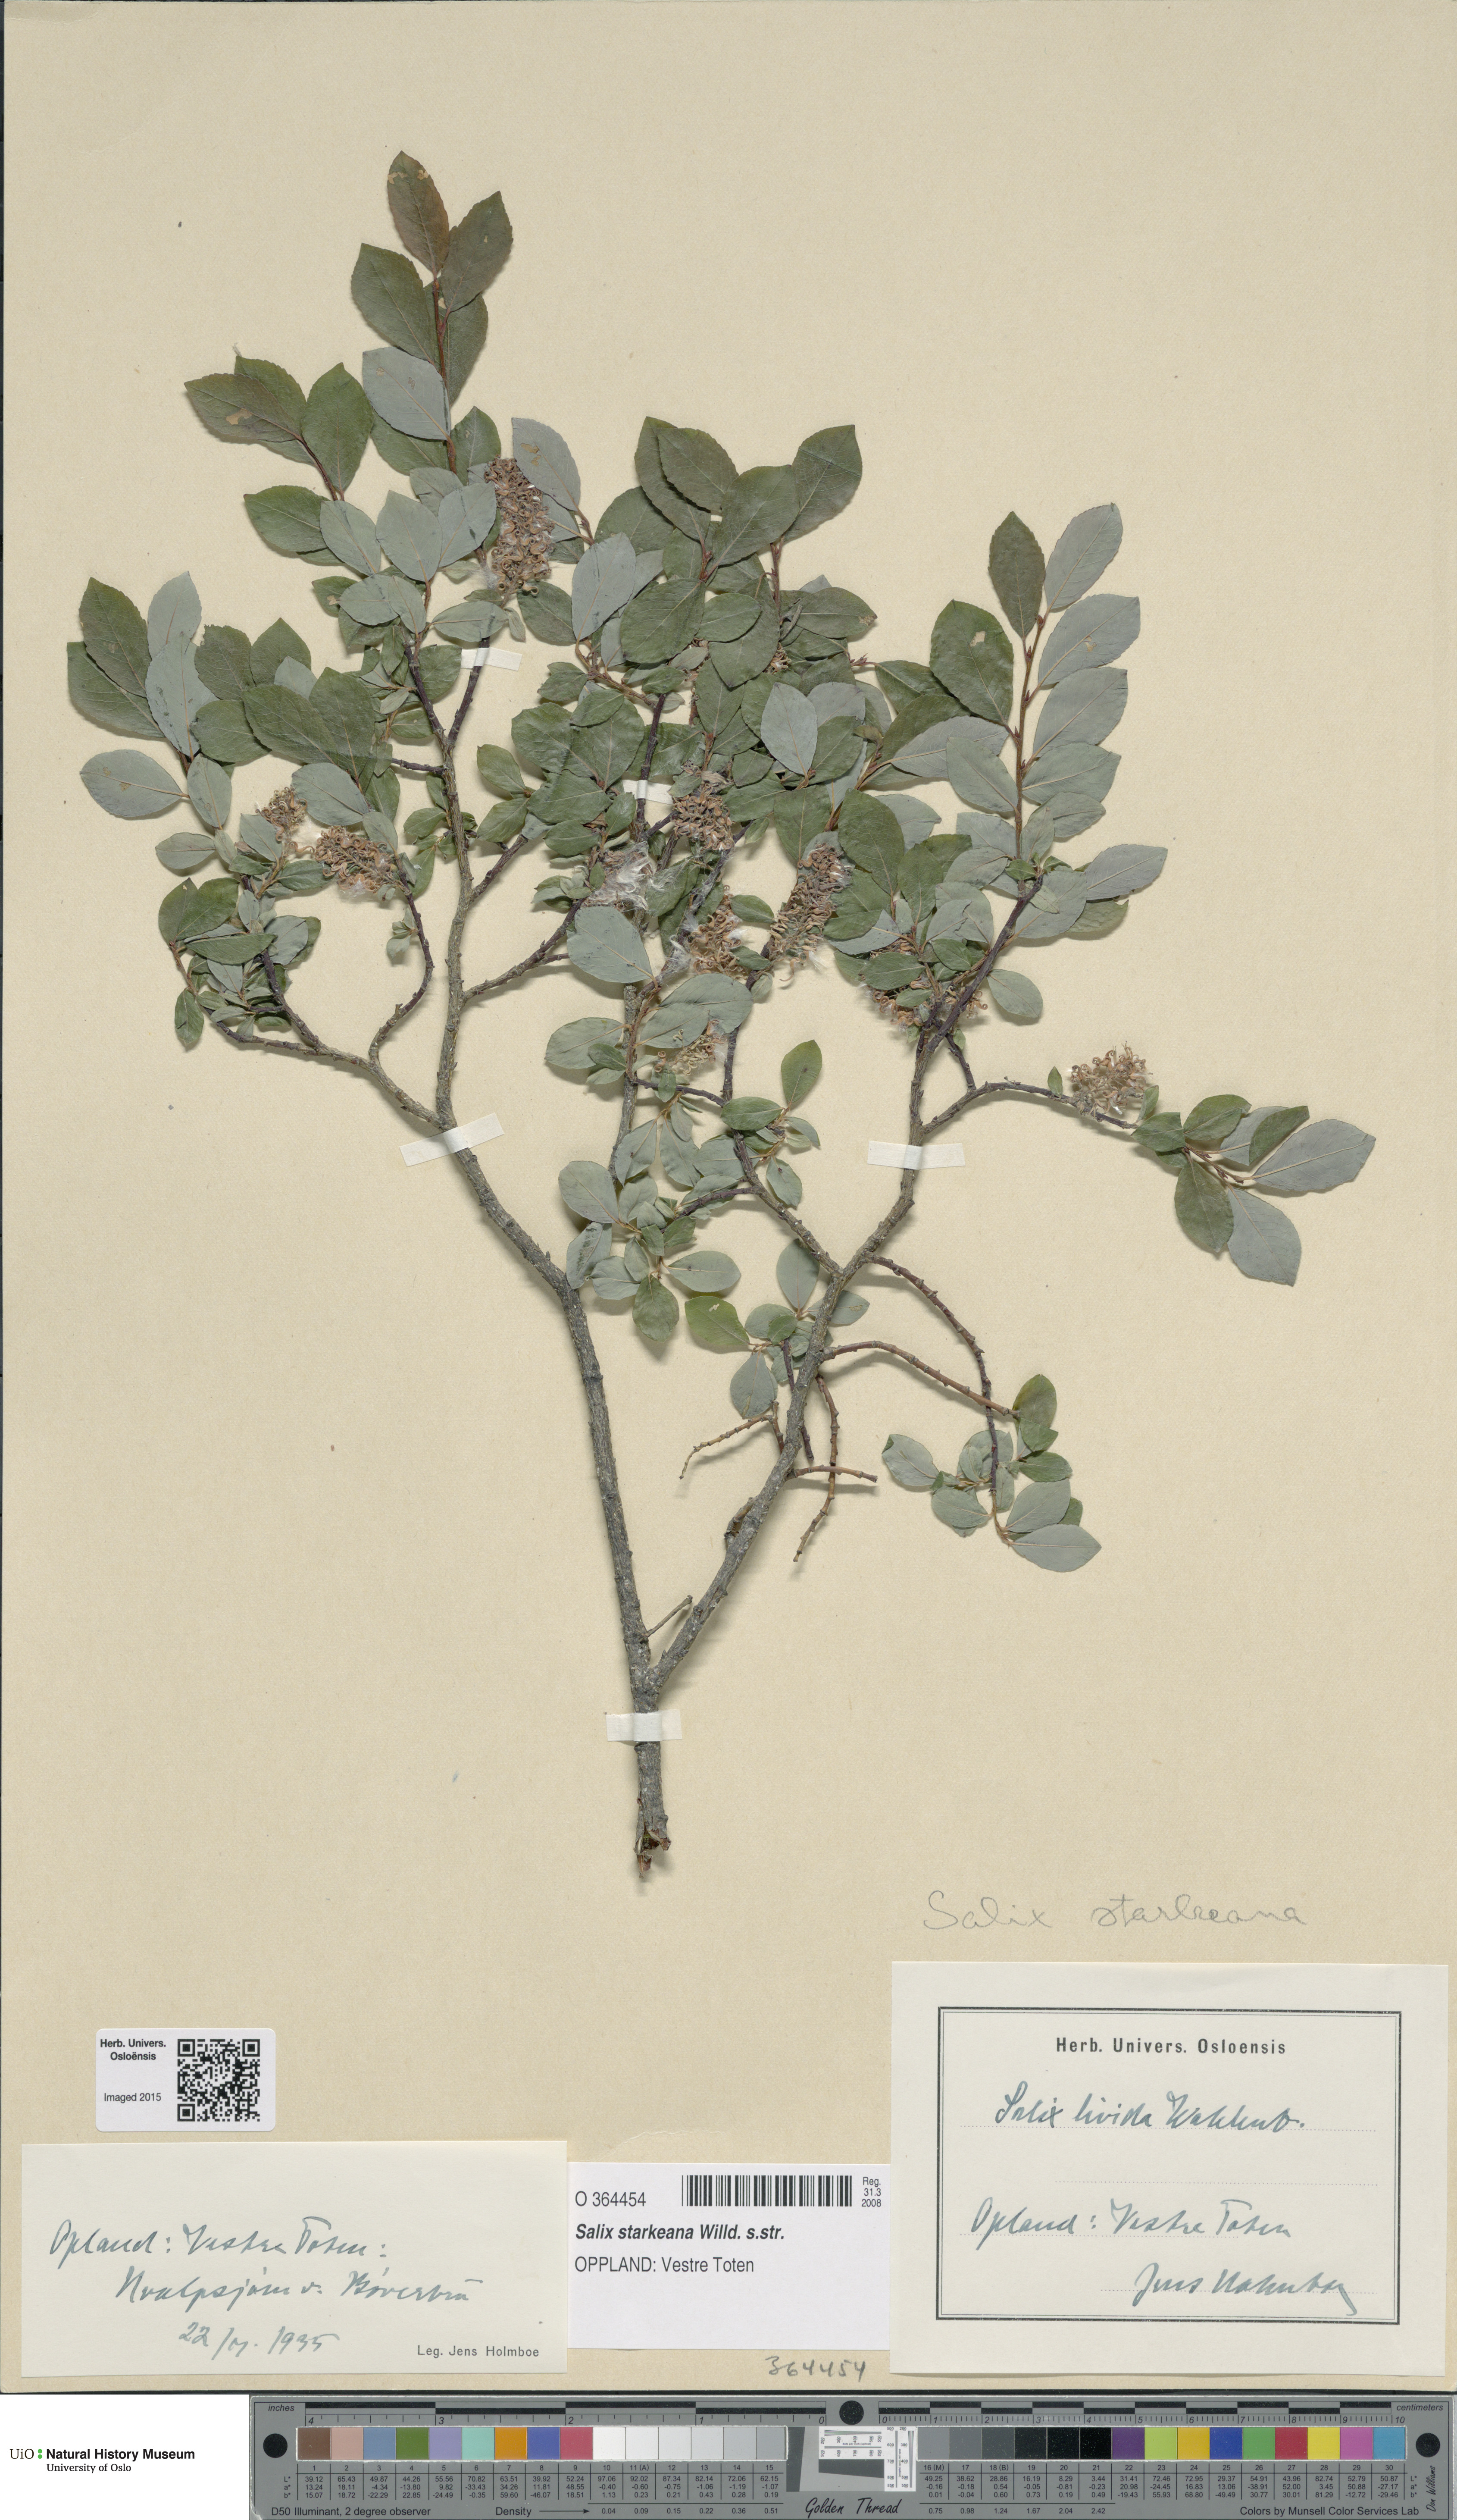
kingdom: Plantae
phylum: Tracheophyta
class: Magnoliopsida
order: Malpighiales
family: Salicaceae
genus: Salix
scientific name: Salix starkeana
